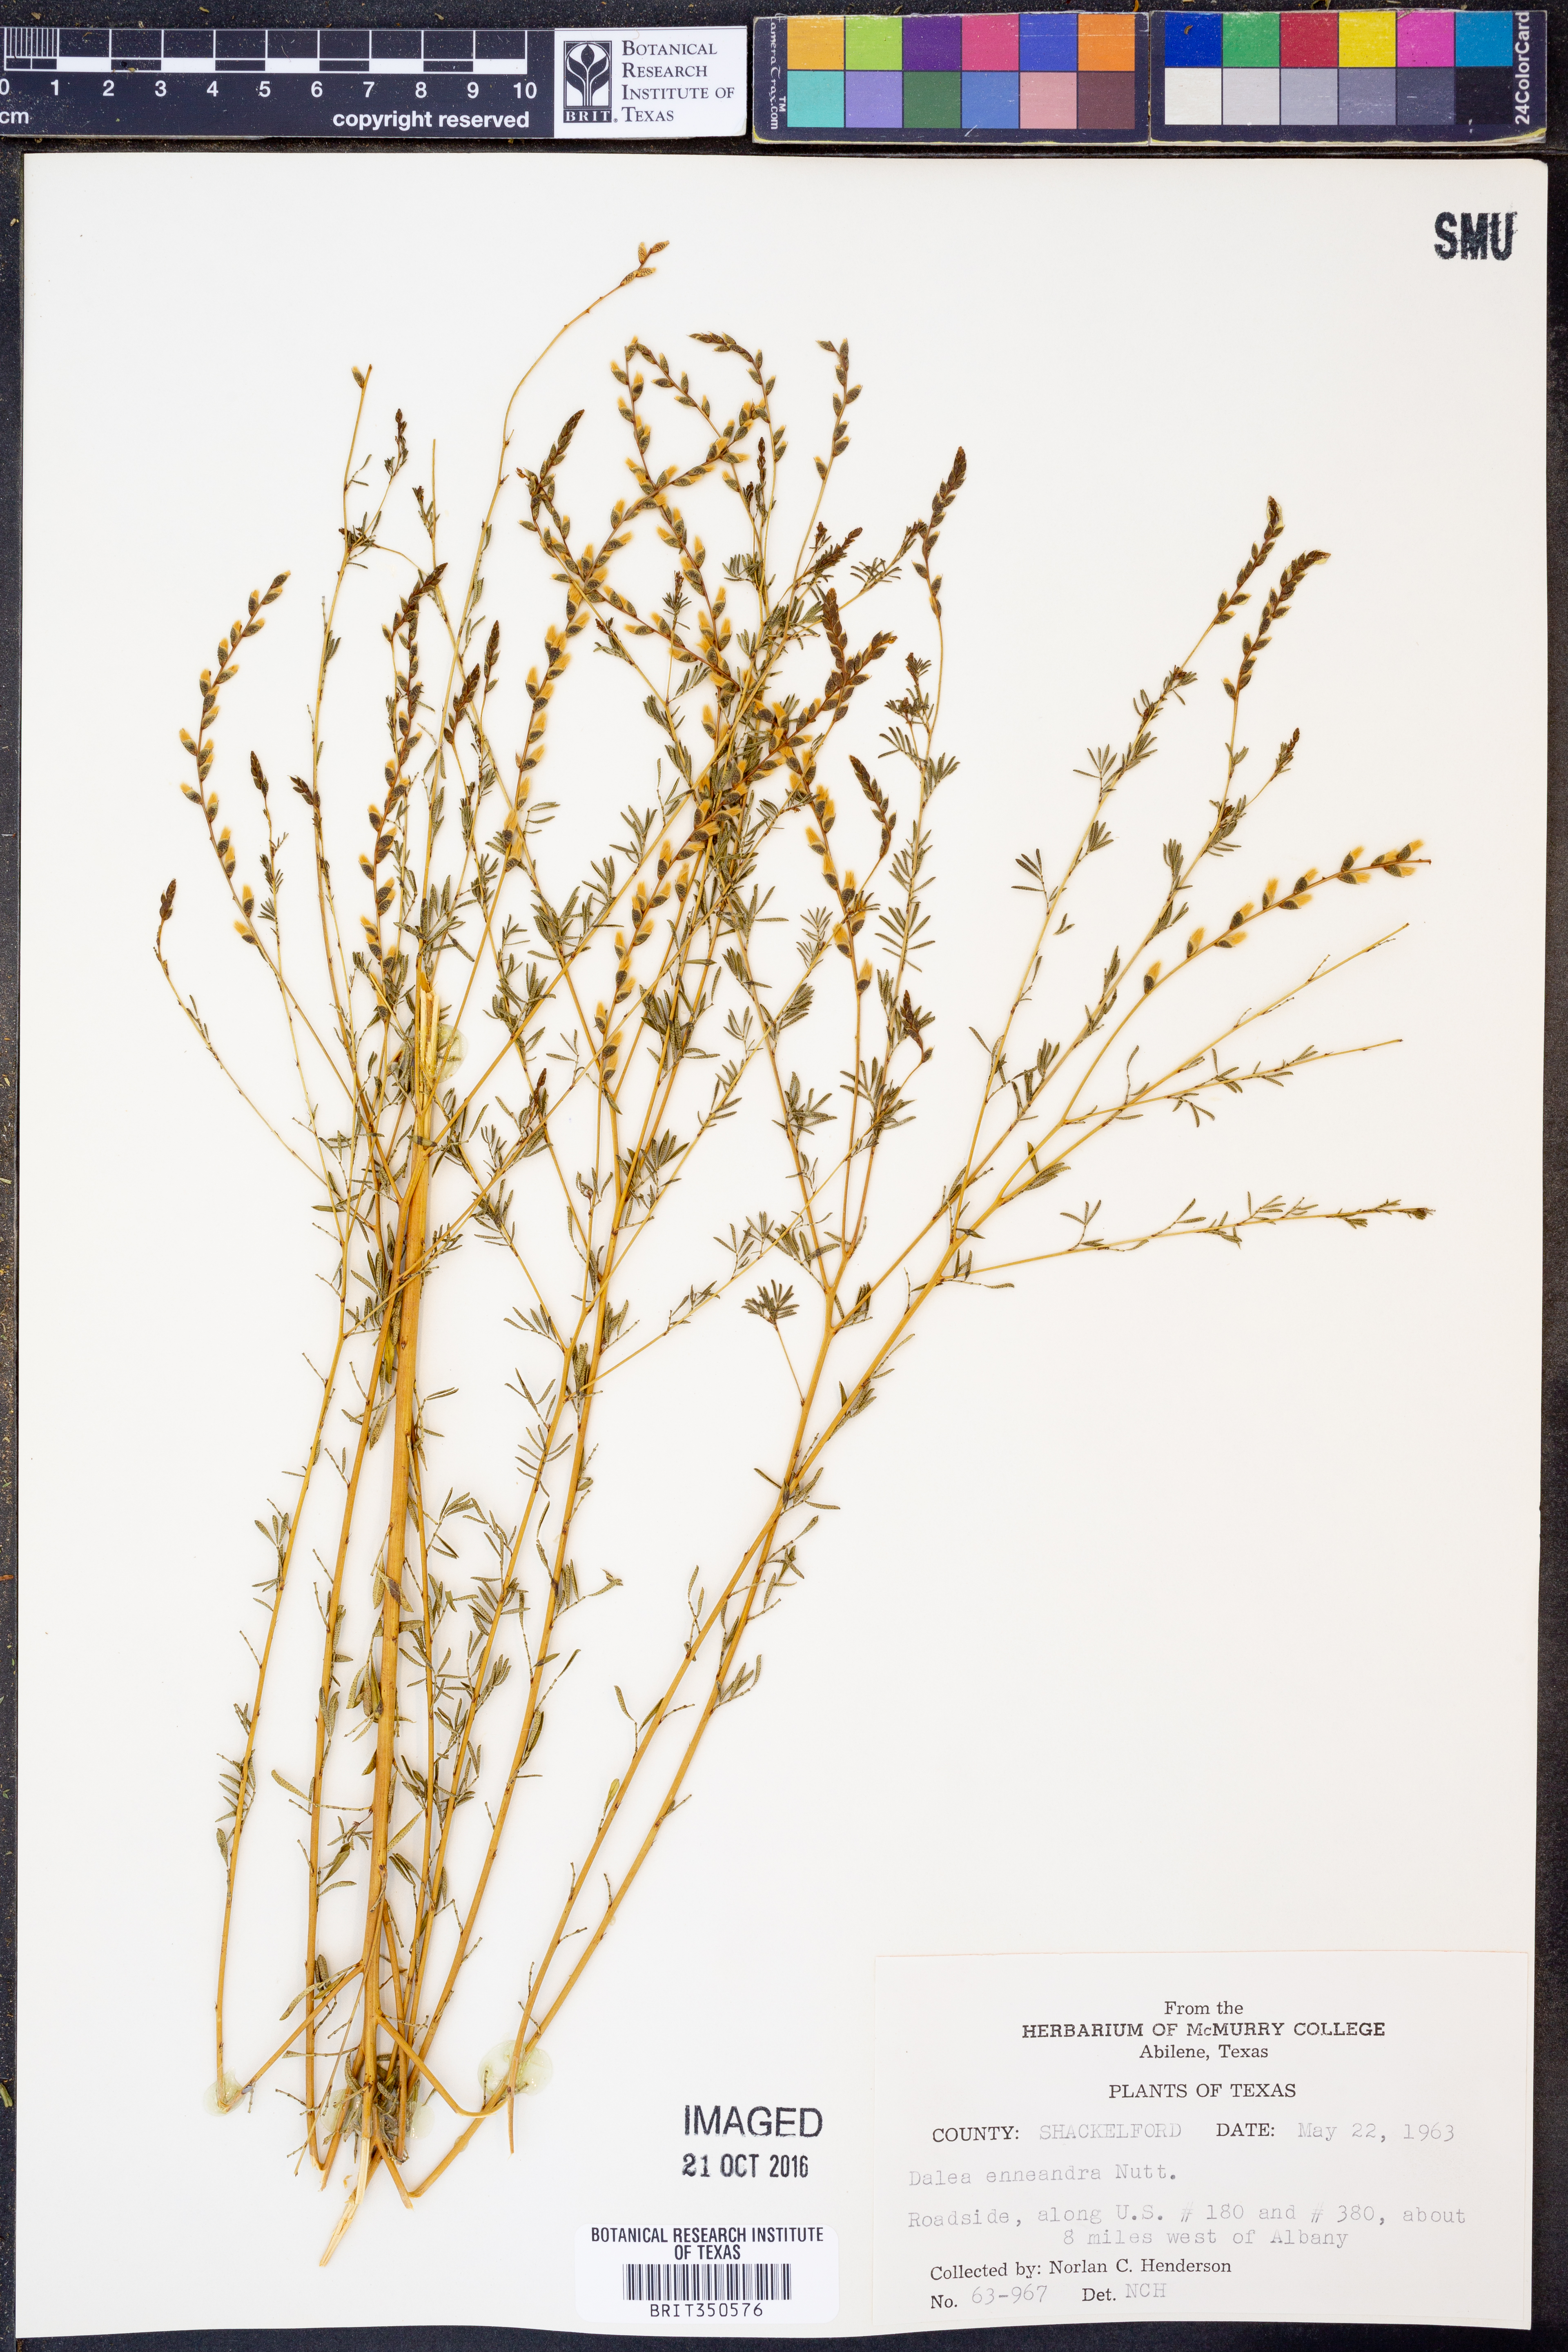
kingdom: Plantae
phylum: Tracheophyta
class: Magnoliopsida
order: Fabales
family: Fabaceae
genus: Dalea
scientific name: Dalea enneandra
